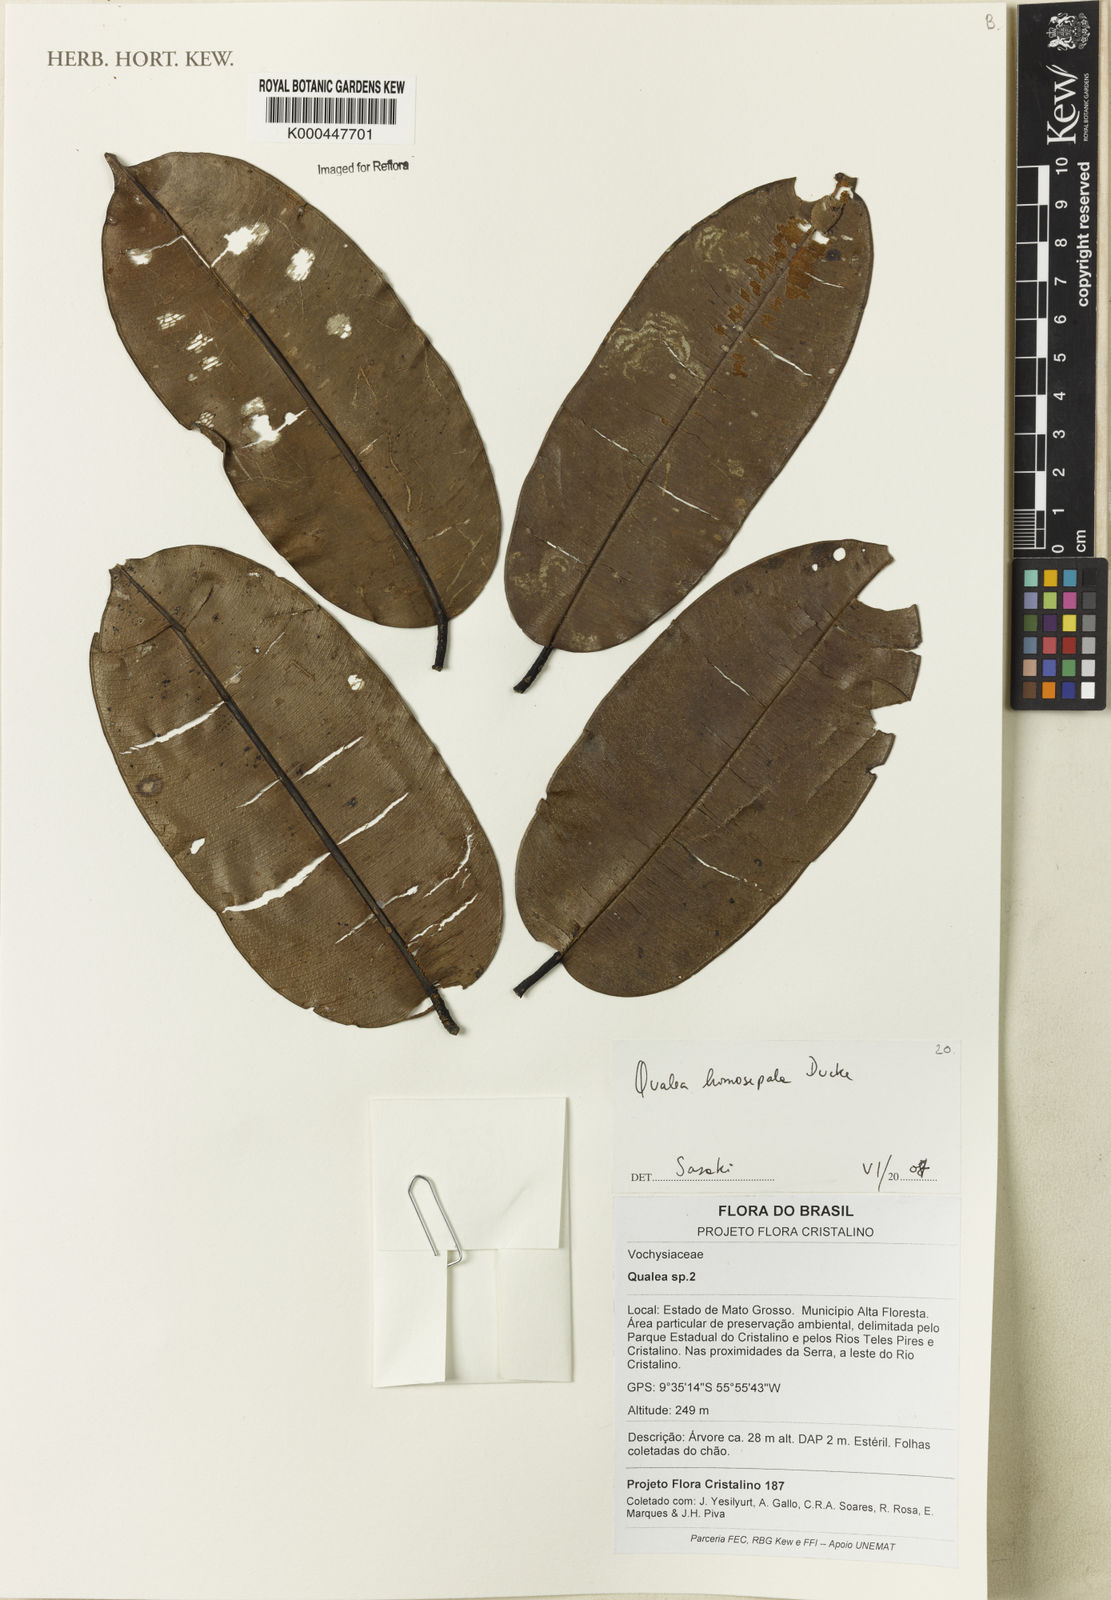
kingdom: Plantae
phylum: Tracheophyta
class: Magnoliopsida
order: Myrtales
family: Vochysiaceae
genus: Qualea
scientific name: Qualea homosepala
